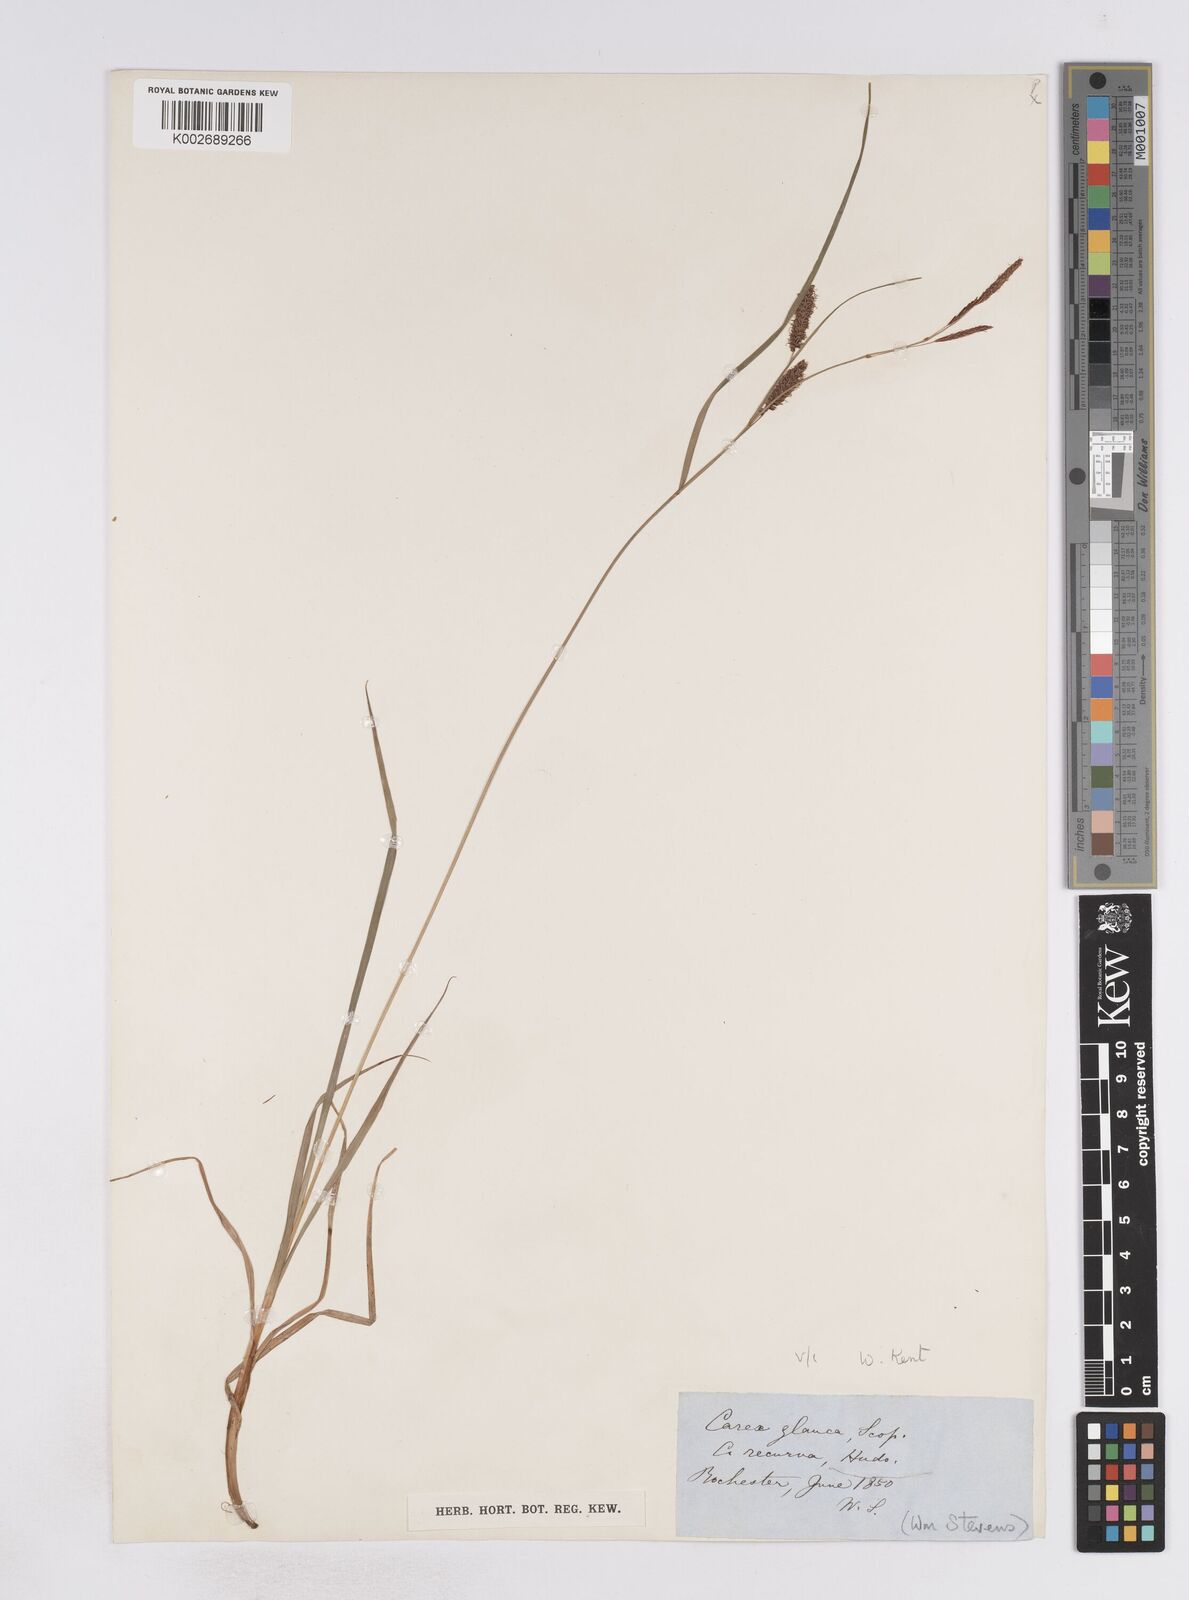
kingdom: Plantae
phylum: Tracheophyta
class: Liliopsida
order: Poales
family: Cyperaceae
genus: Carex
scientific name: Carex flacca
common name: Glaucous sedge
